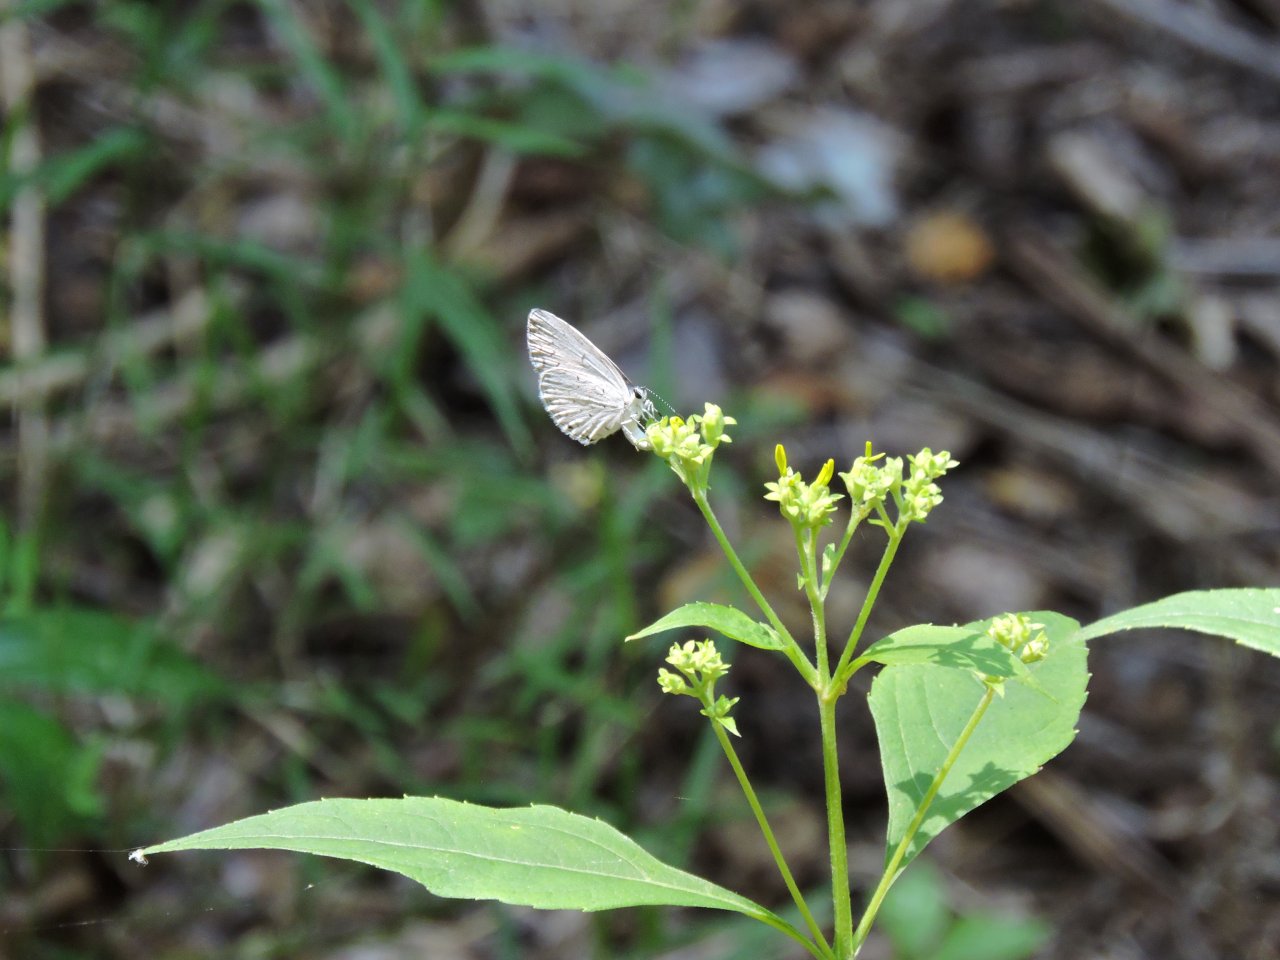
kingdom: Animalia
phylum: Arthropoda
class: Insecta
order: Lepidoptera
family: Lycaenidae
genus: Cyaniris
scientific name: Cyaniris neglecta
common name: Summer Azure
